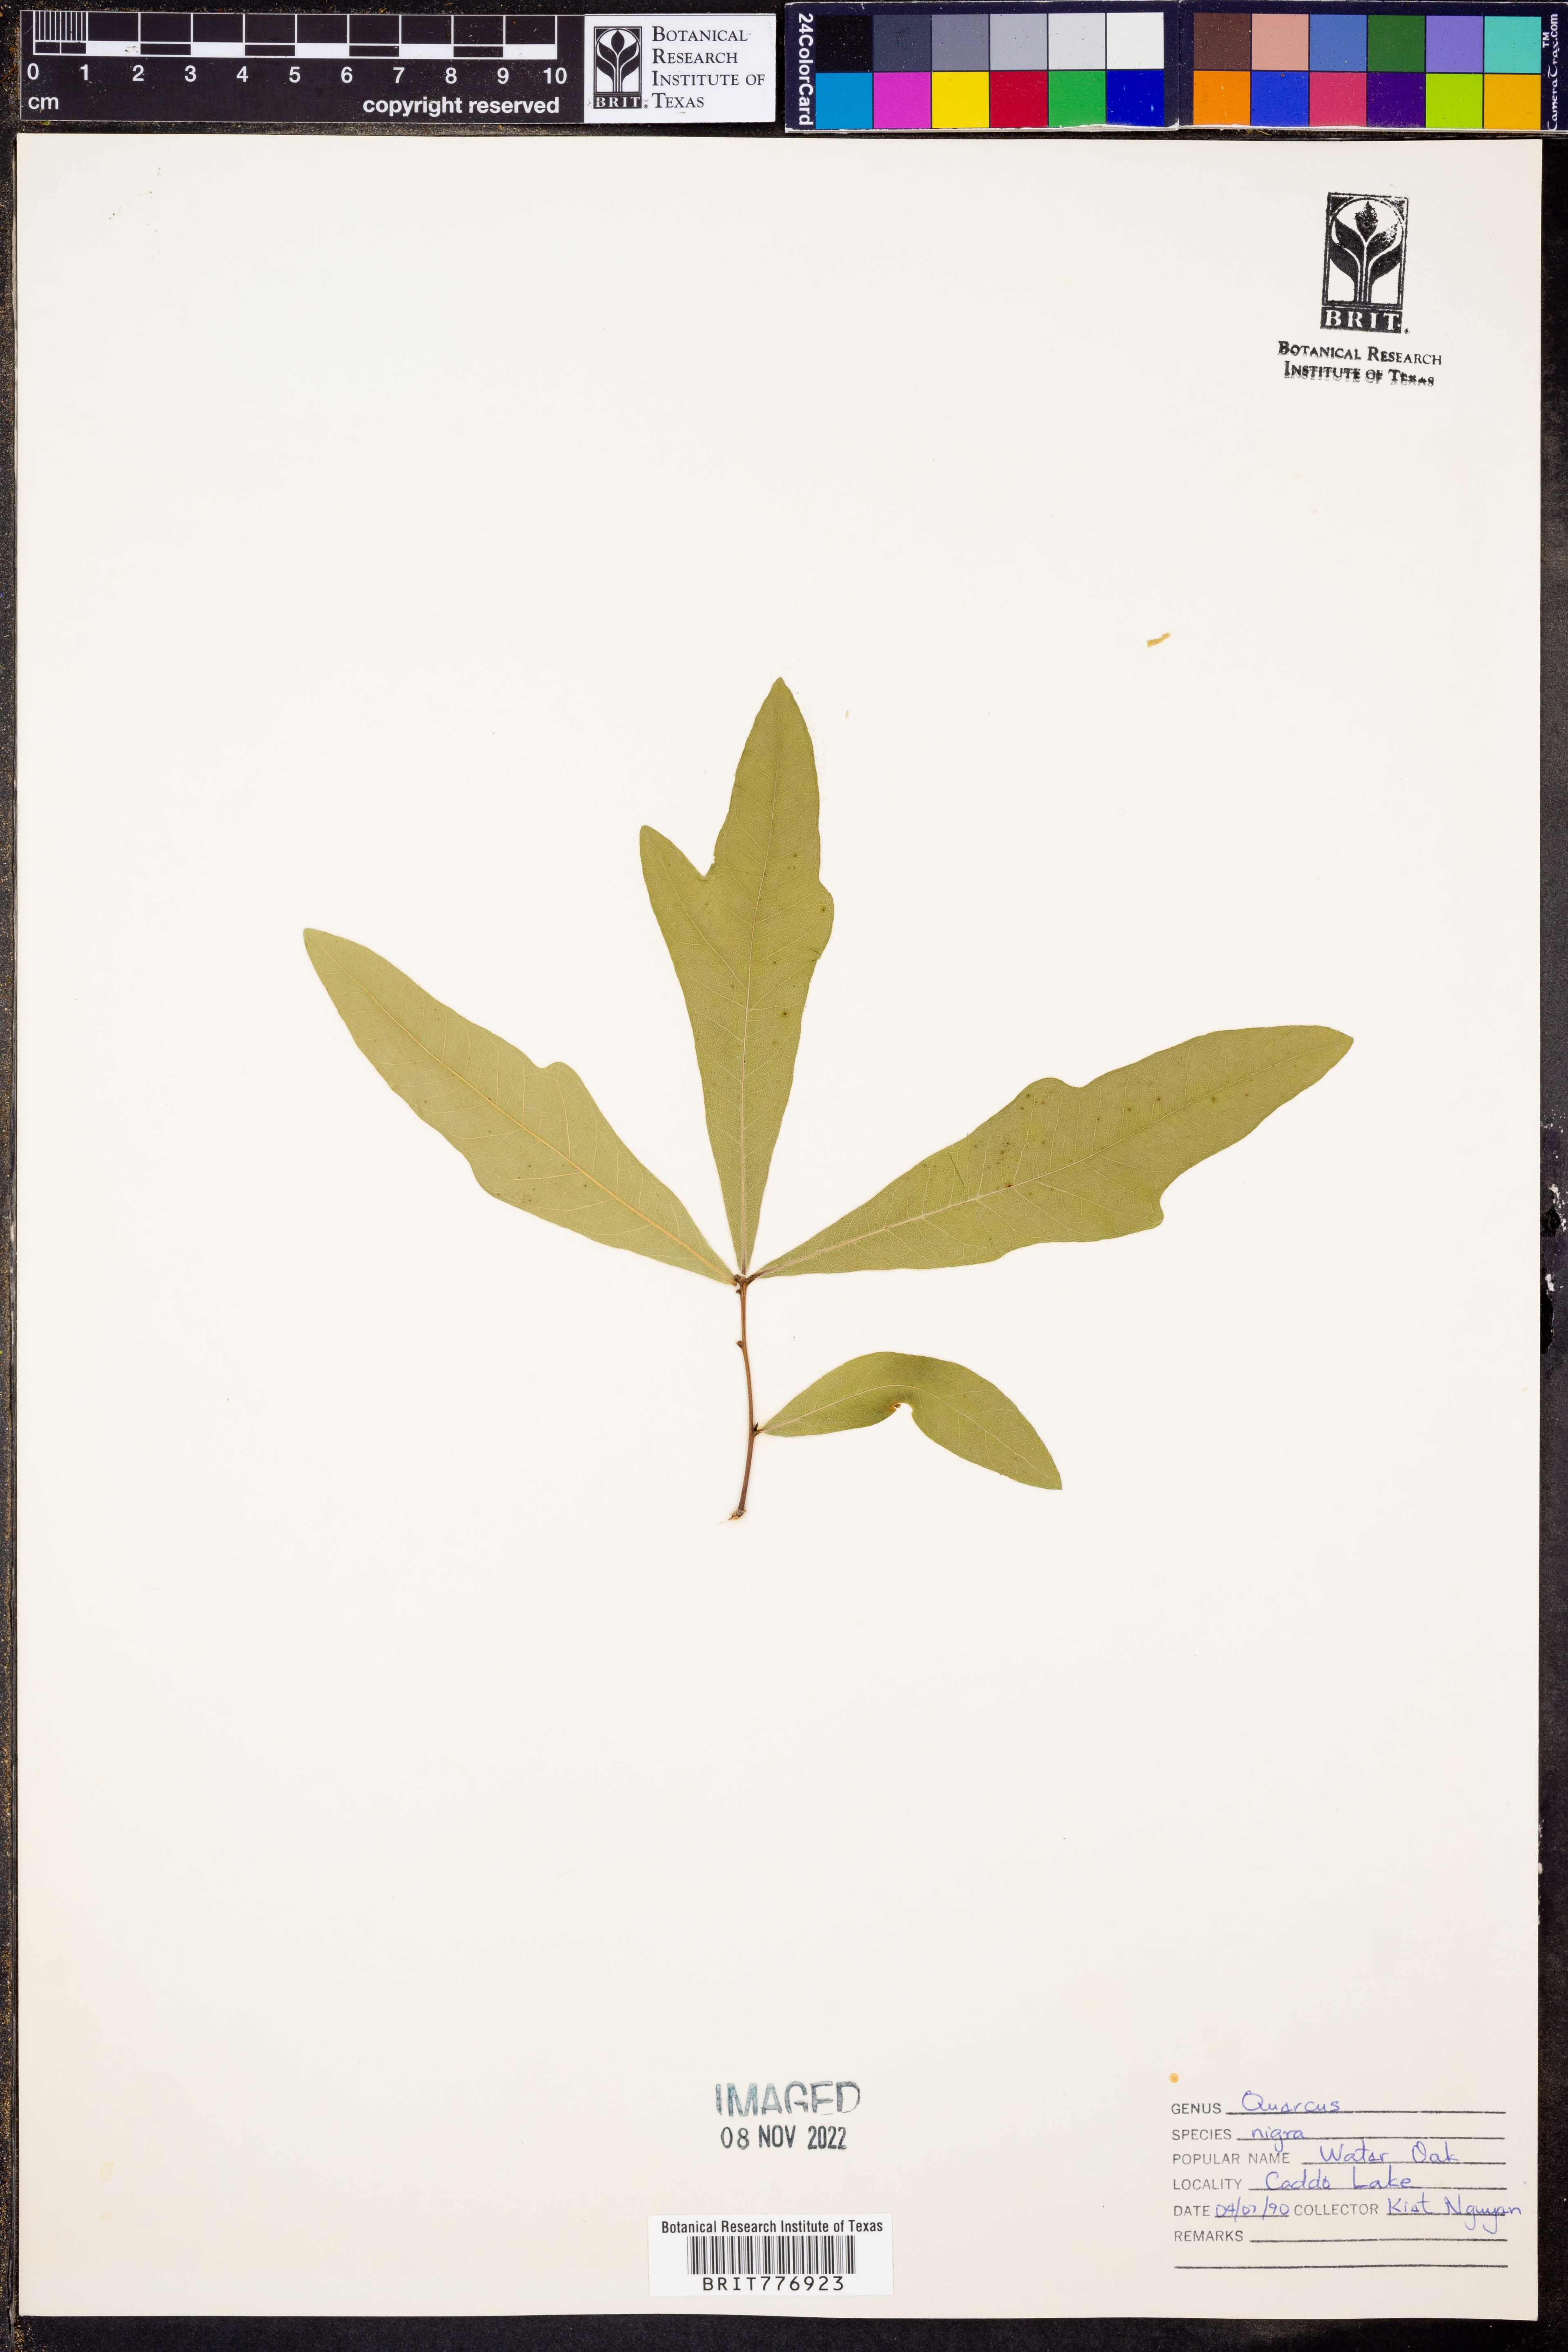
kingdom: Plantae
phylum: Tracheophyta
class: Magnoliopsida
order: Fagales
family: Fagaceae
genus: Quercus
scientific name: Quercus nigra
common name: Water oak
